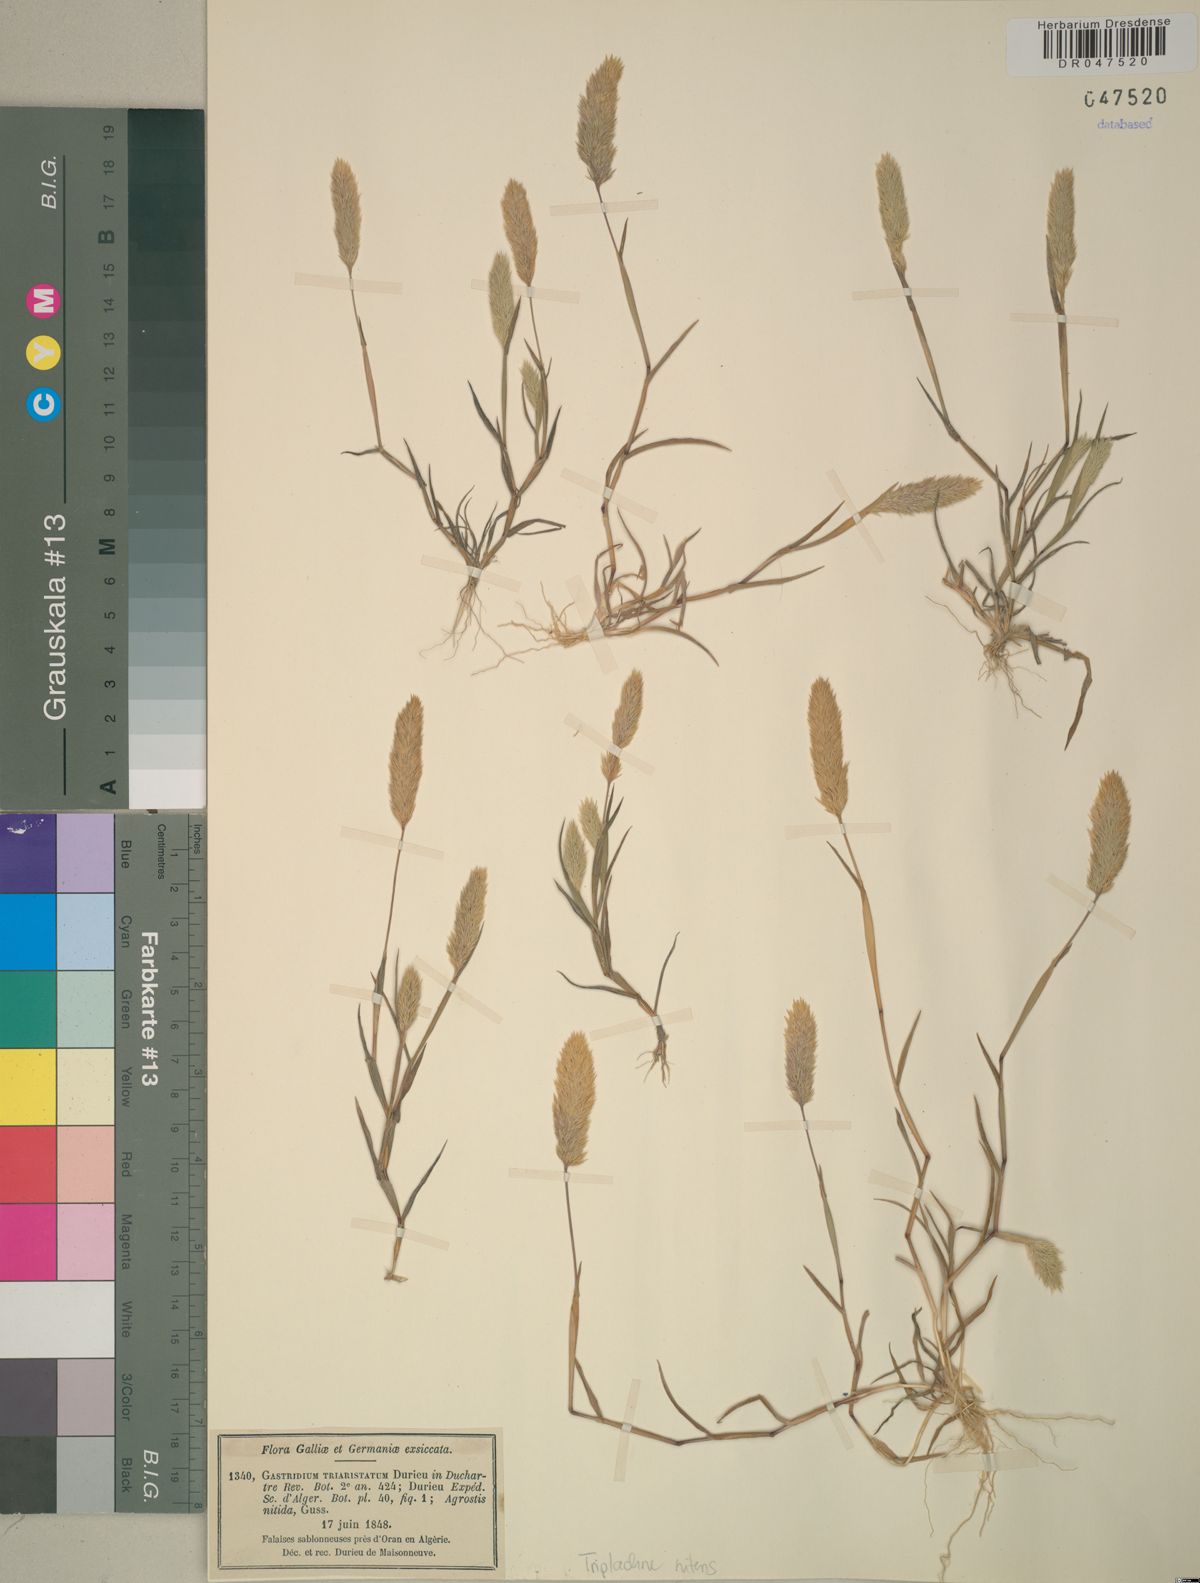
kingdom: Plantae
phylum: Tracheophyta
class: Liliopsida
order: Poales
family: Poaceae
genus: Triplachne
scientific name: Triplachne nitens
